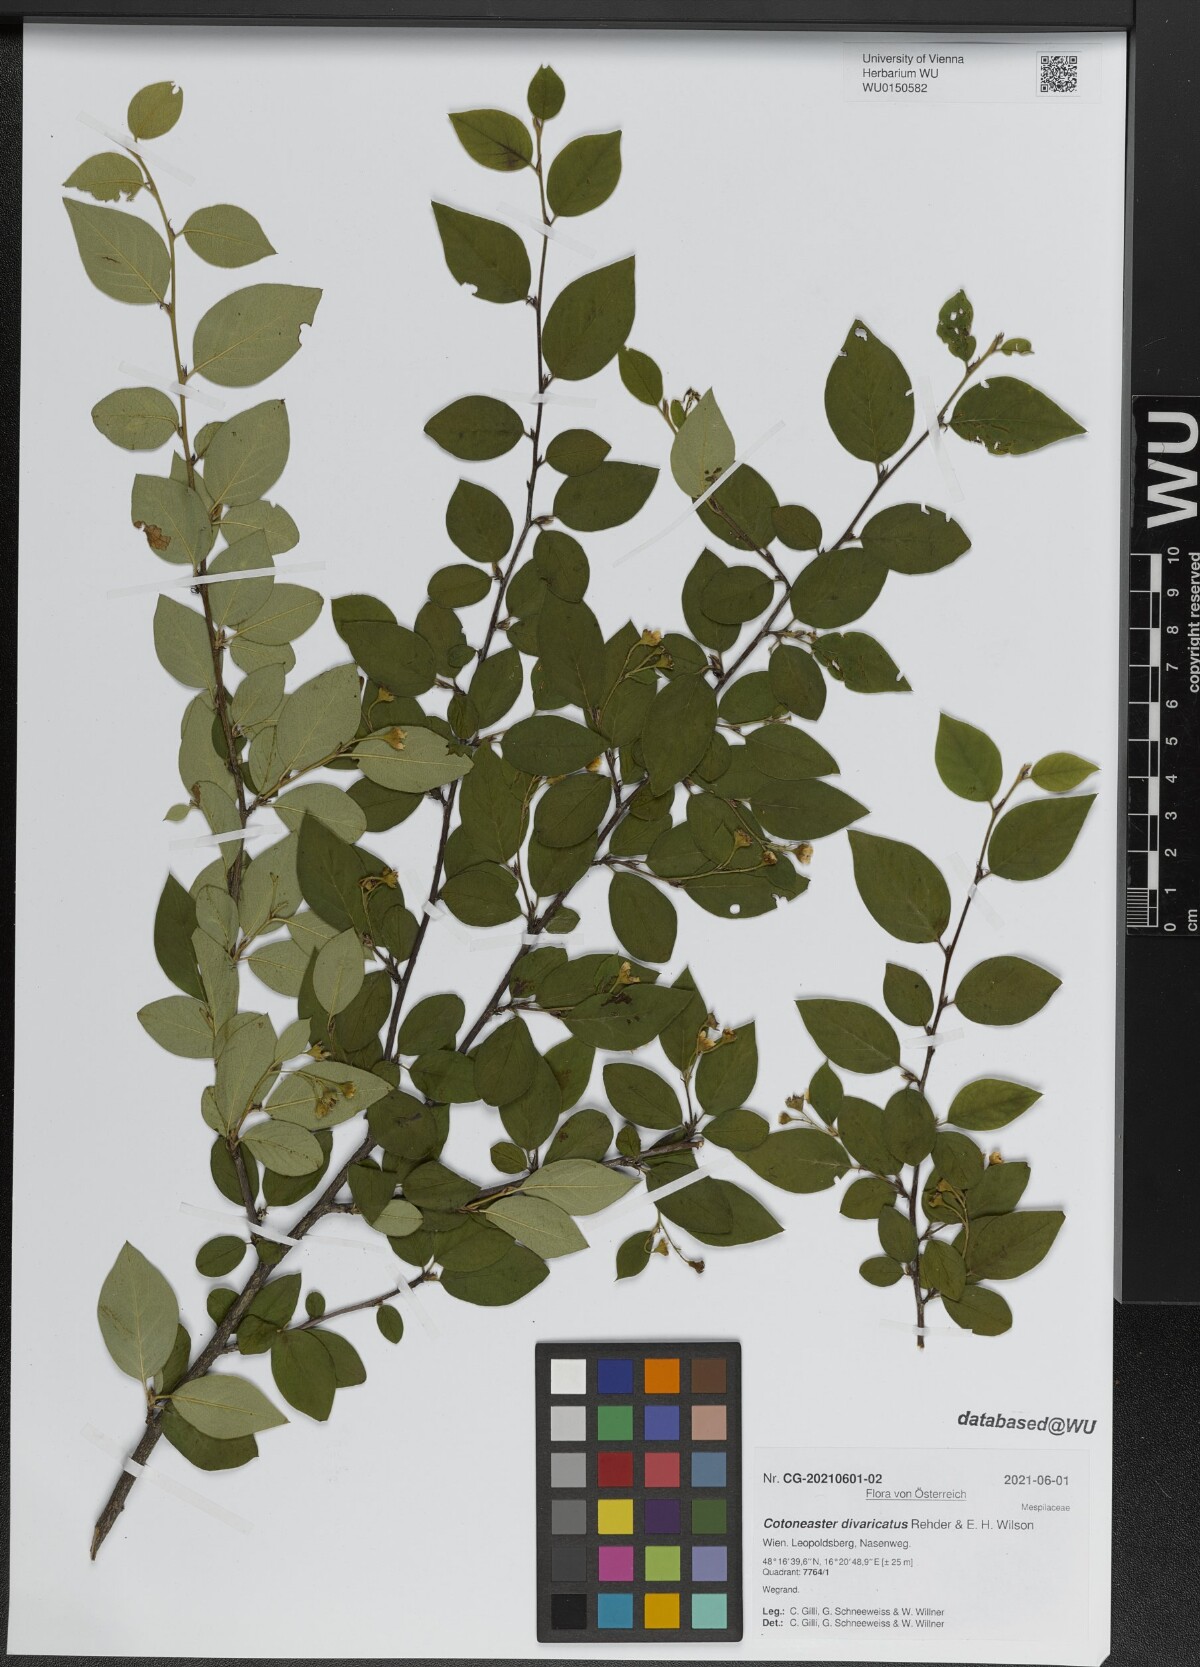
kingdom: Plantae
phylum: Tracheophyta
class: Magnoliopsida
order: Rosales
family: Rosaceae
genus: Cotoneaster
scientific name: Cotoneaster divaricatus
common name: Spreading cotoneaster
